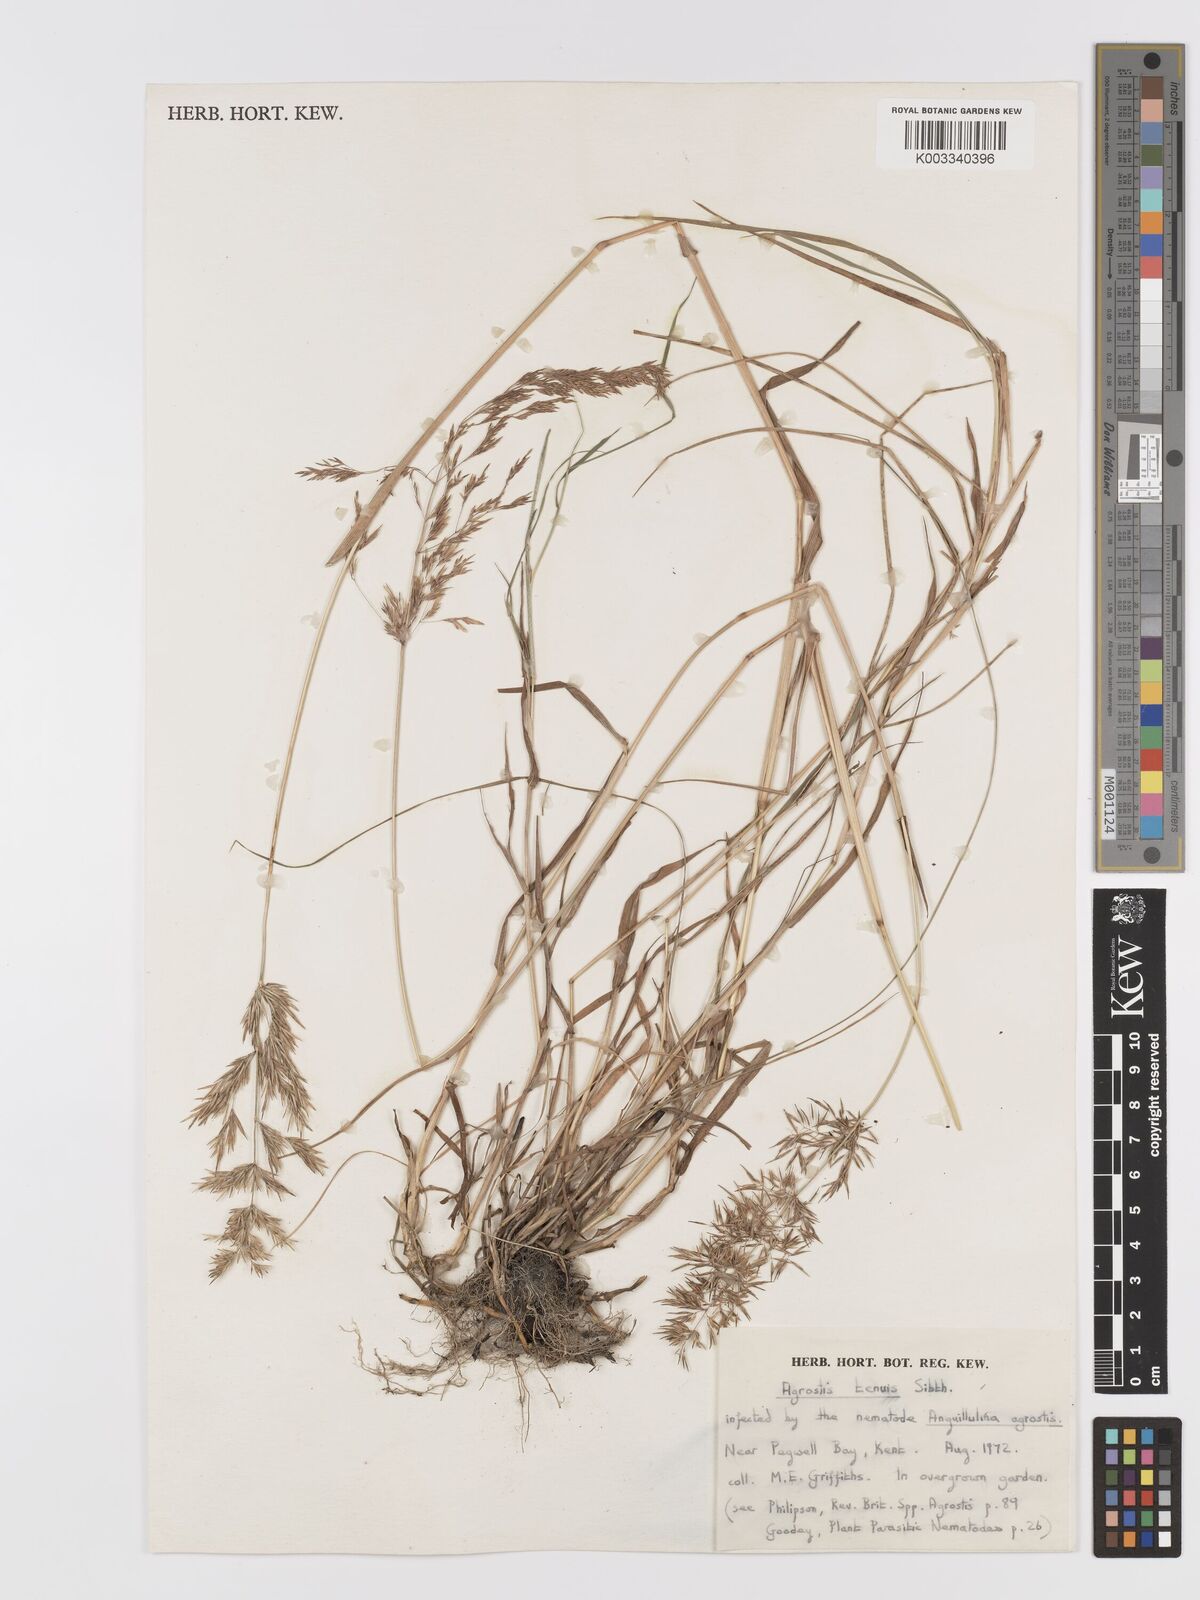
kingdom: Plantae
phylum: Tracheophyta
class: Liliopsida
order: Poales
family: Poaceae
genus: Agrostis
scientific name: Agrostis capillaris
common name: Colonial bentgrass
